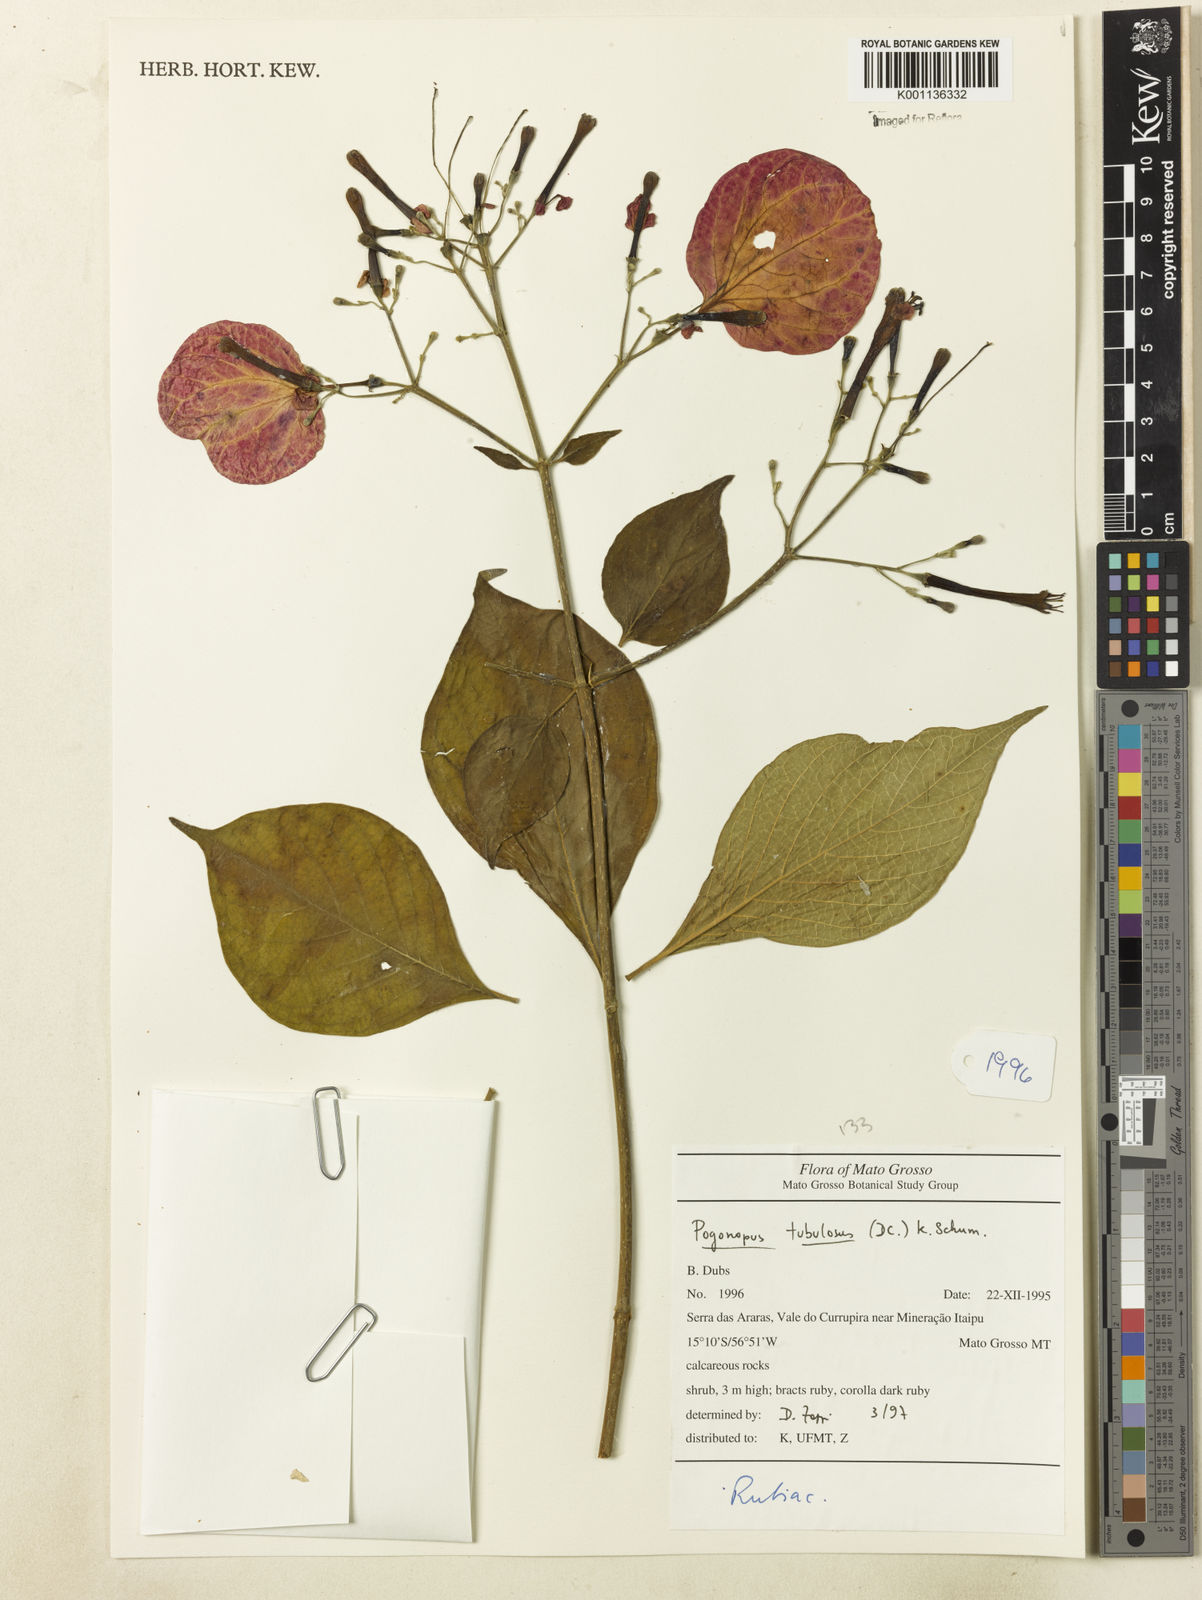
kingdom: Plantae
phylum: Tracheophyta
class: Magnoliopsida
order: Gentianales
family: Rubiaceae
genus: Pogonopus
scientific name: Pogonopus tubulosus
